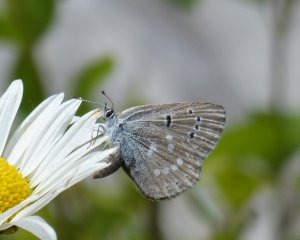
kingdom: Animalia
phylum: Arthropoda
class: Insecta
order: Lepidoptera
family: Lycaenidae
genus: Icaricia
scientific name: Icaricia icarioides
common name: Boisduval's Blue
